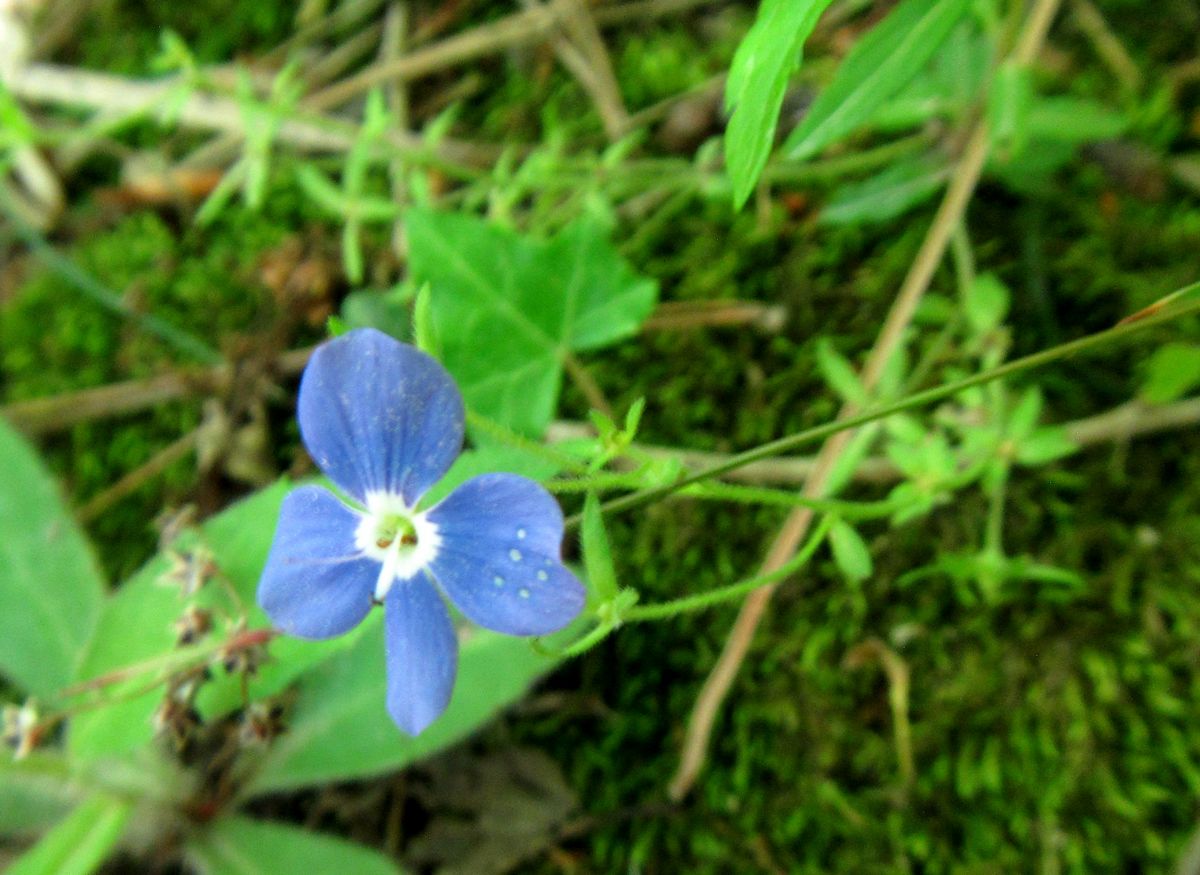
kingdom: Plantae
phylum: Tracheophyta
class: Magnoliopsida
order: Lamiales
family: Plantaginaceae
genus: Veronica
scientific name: Veronica
